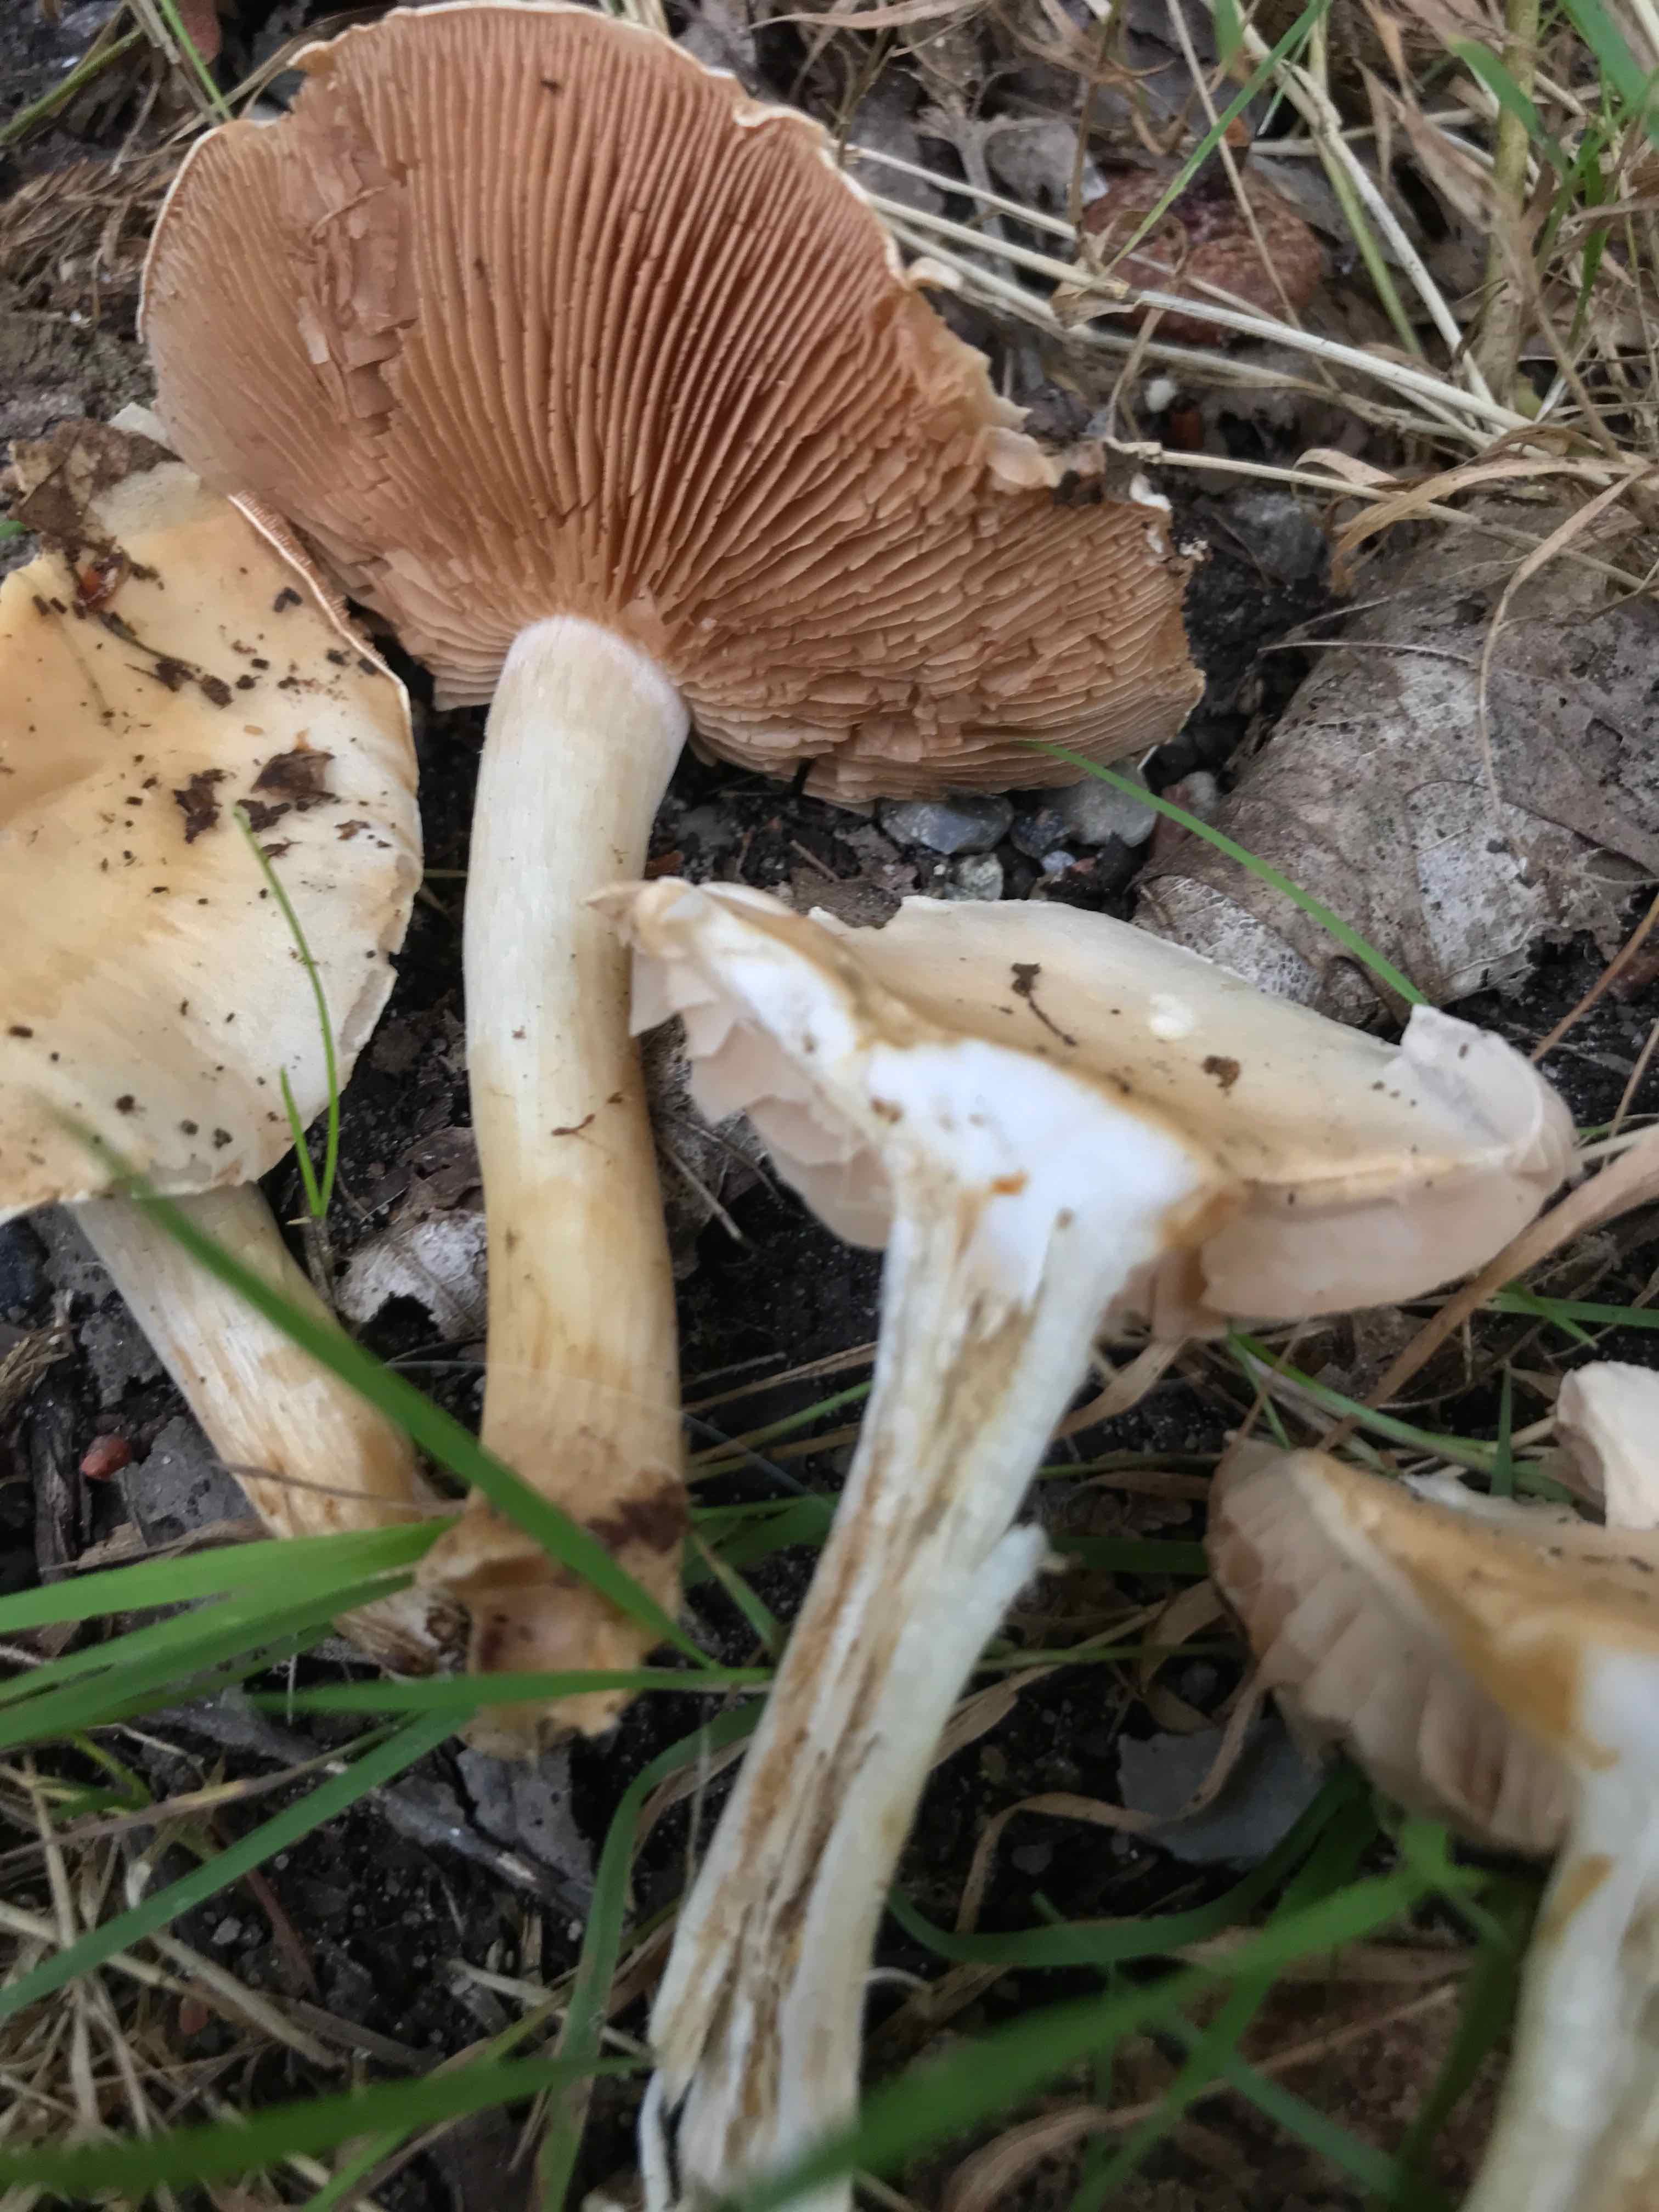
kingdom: Fungi
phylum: Basidiomycota
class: Agaricomycetes
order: Agaricales
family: Hymenogastraceae
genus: Hebeloma
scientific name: Hebeloma
